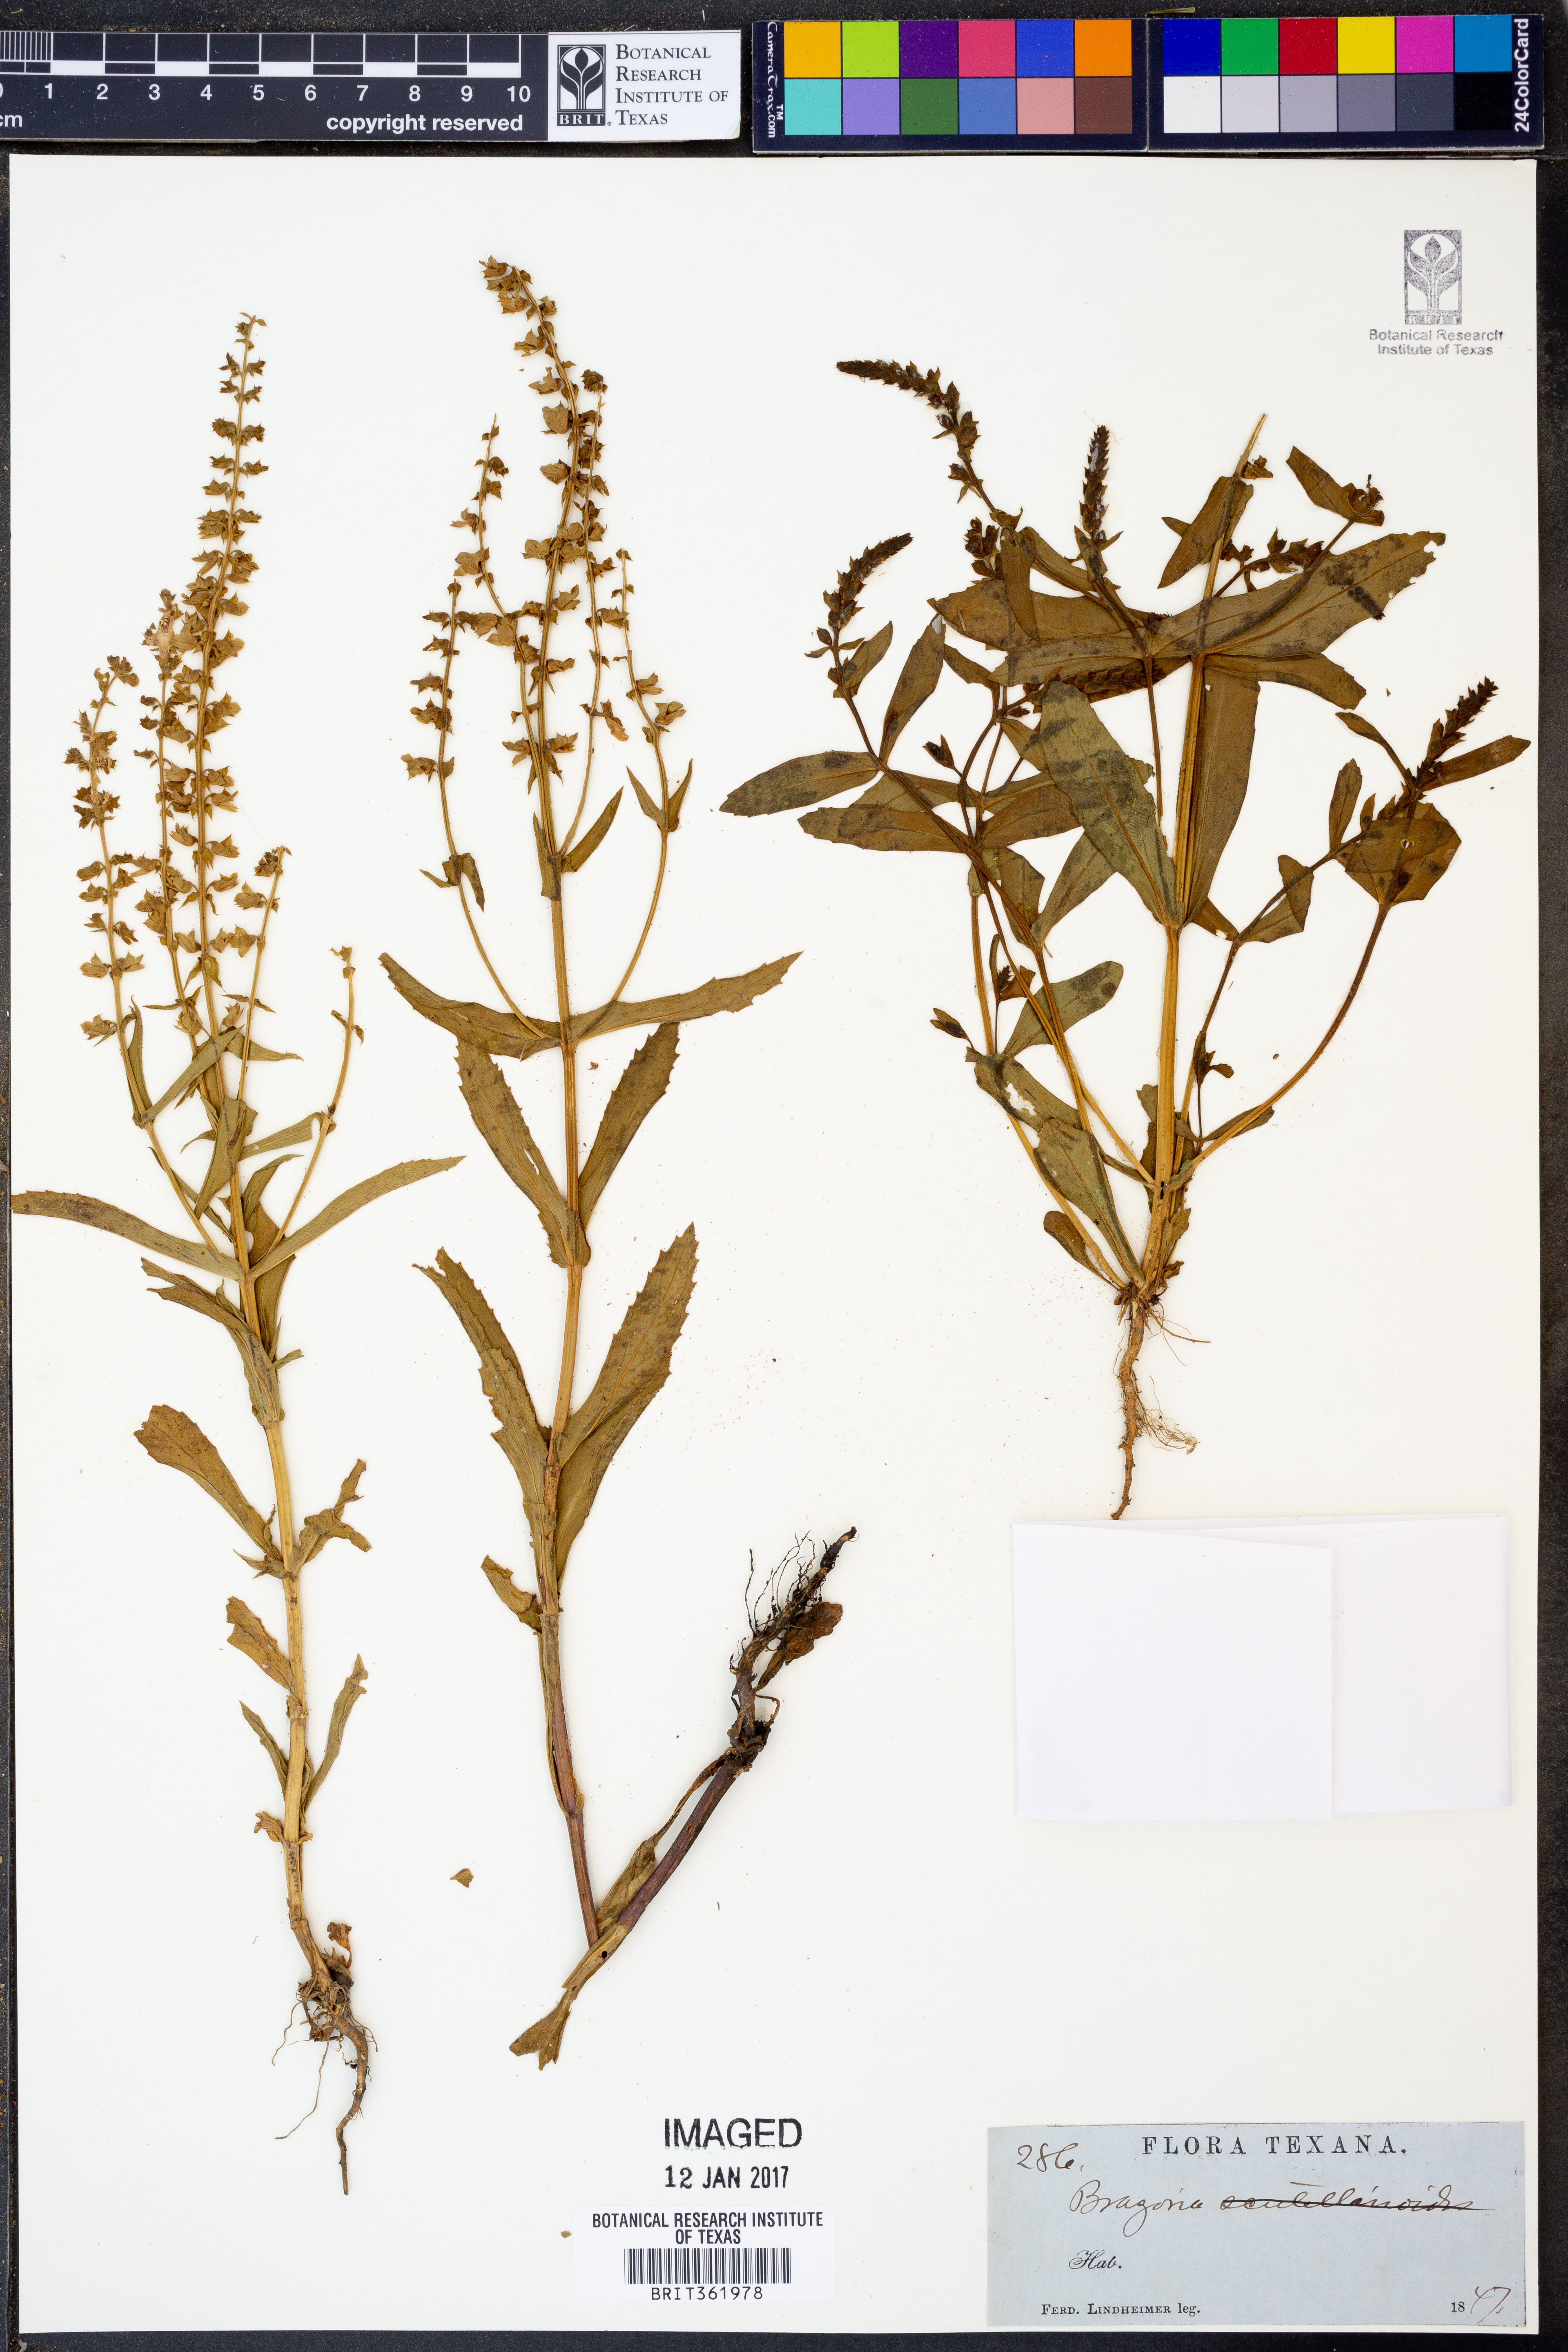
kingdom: Plantae
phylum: Tracheophyta
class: Magnoliopsida
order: Lamiales
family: Lamiaceae
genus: Warnockia
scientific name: Warnockia scutellarioides
